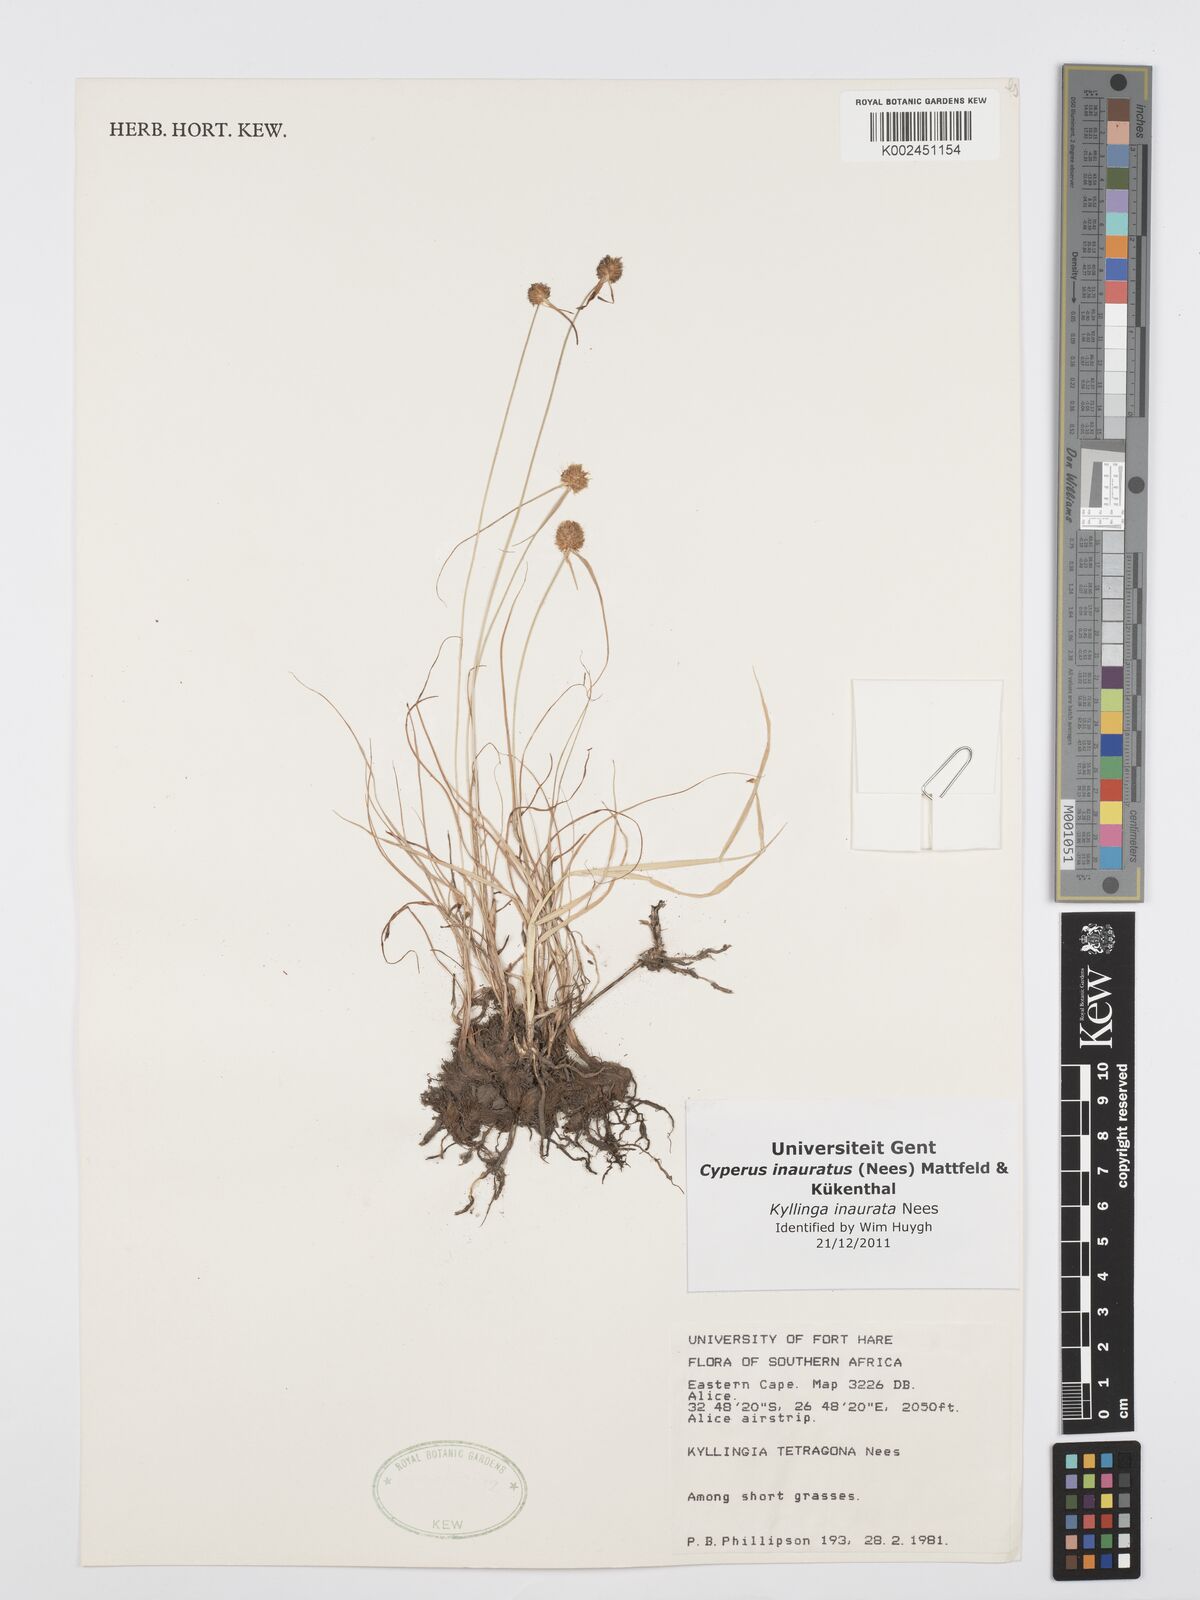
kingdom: Plantae
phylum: Tracheophyta
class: Liliopsida
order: Poales
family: Cyperaceae
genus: Cyperus
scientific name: Cyperus inauratus
